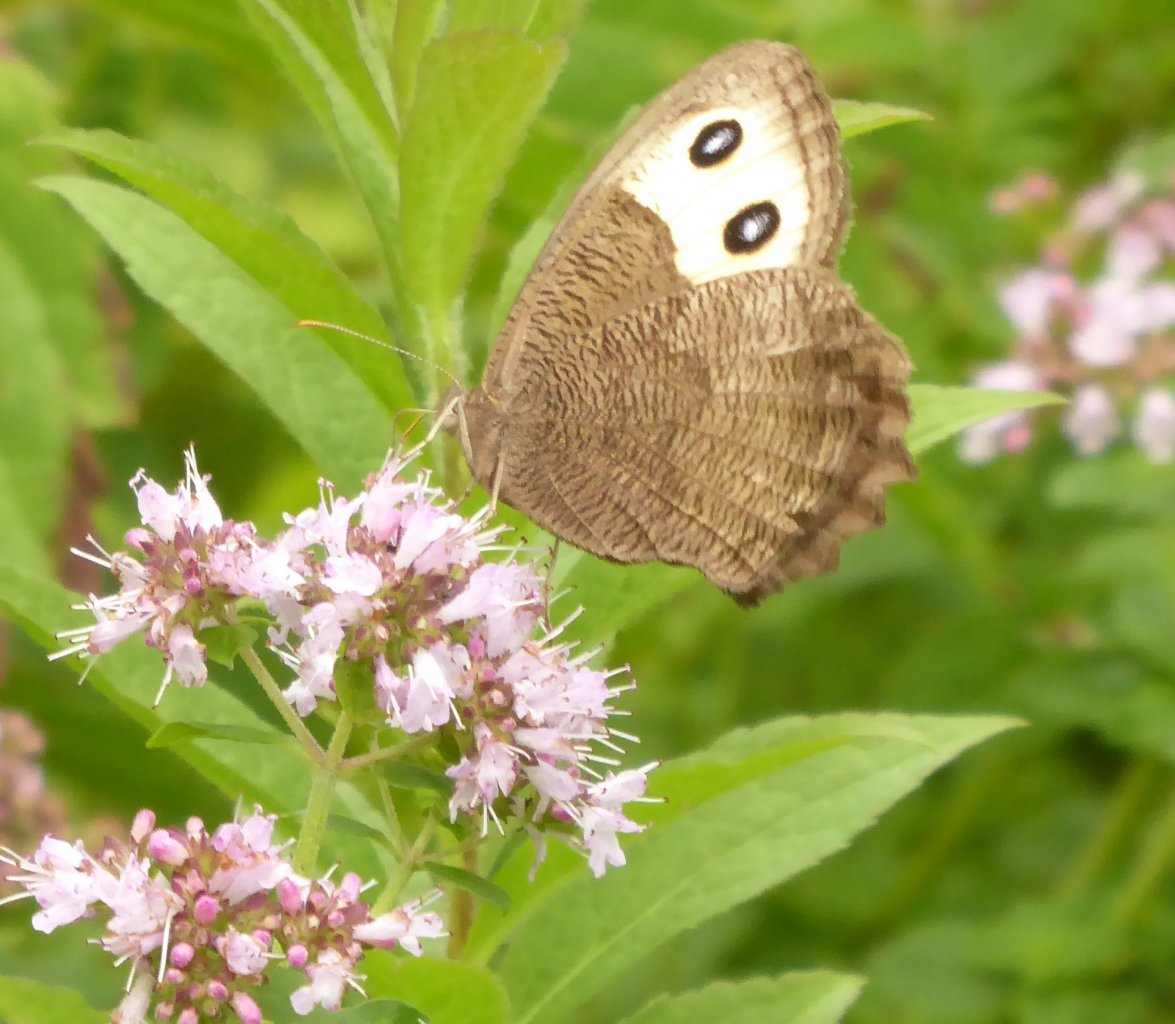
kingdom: Animalia
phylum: Arthropoda
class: Insecta
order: Lepidoptera
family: Nymphalidae
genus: Cercyonis
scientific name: Cercyonis pegala
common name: Common Wood-Nymph
